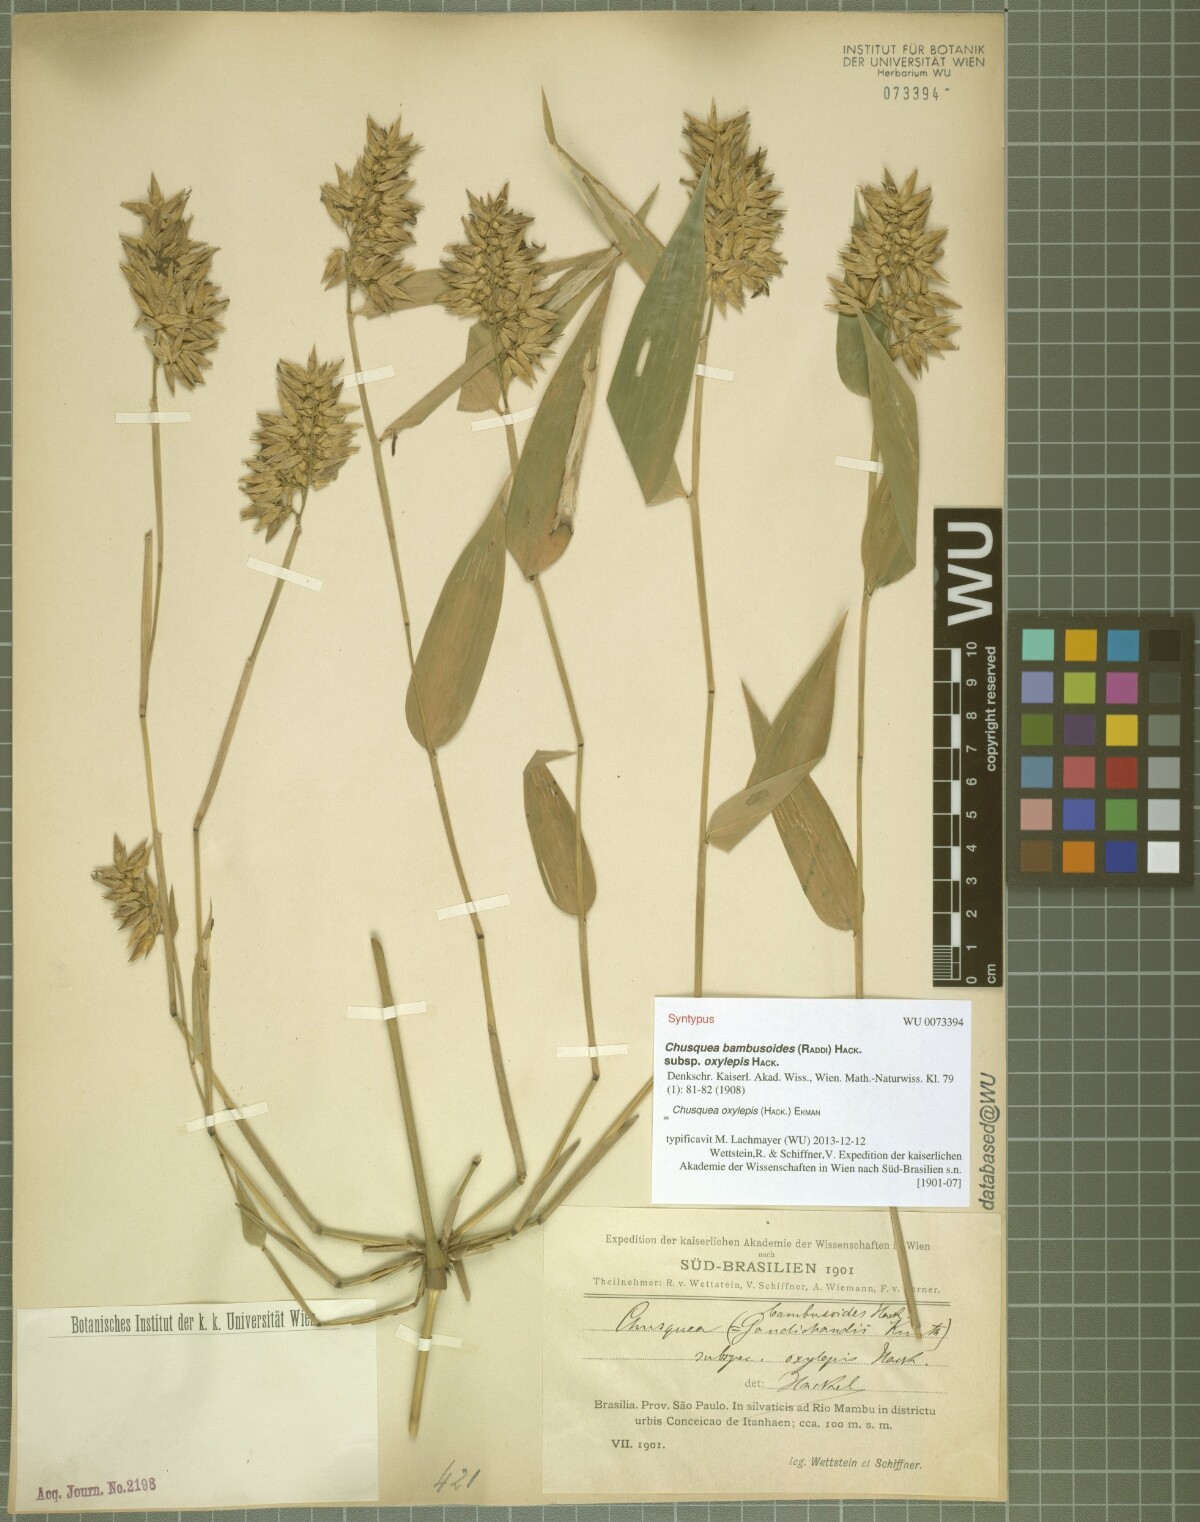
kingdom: Plantae
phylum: Tracheophyta
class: Liliopsida
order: Poales
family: Poaceae
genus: Chusquea
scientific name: Chusquea oxylepis
